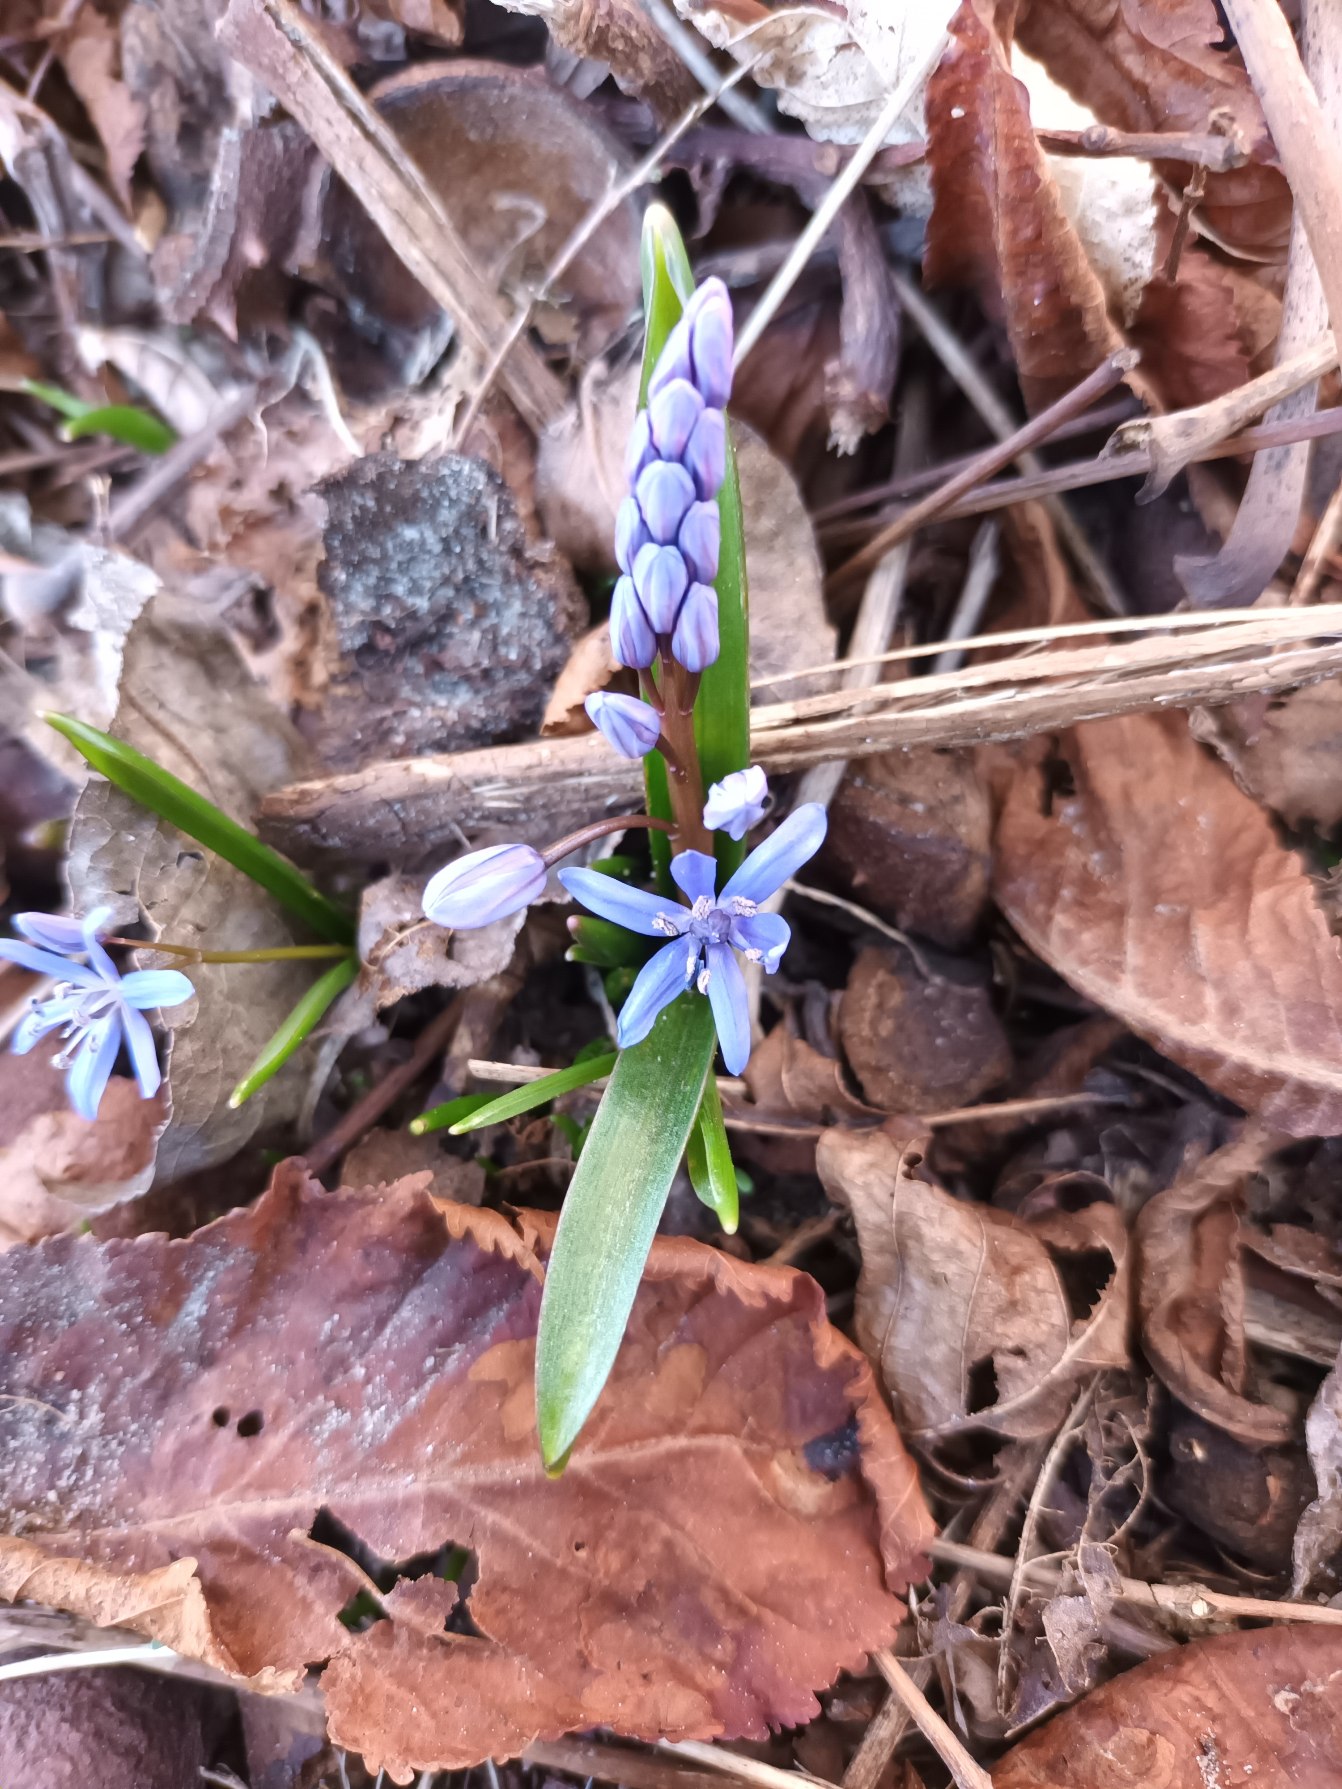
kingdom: Plantae
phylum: Tracheophyta
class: Liliopsida
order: Asparagales
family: Asparagaceae
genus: Scilla
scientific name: Scilla bifolia
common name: Tobladet skilla
